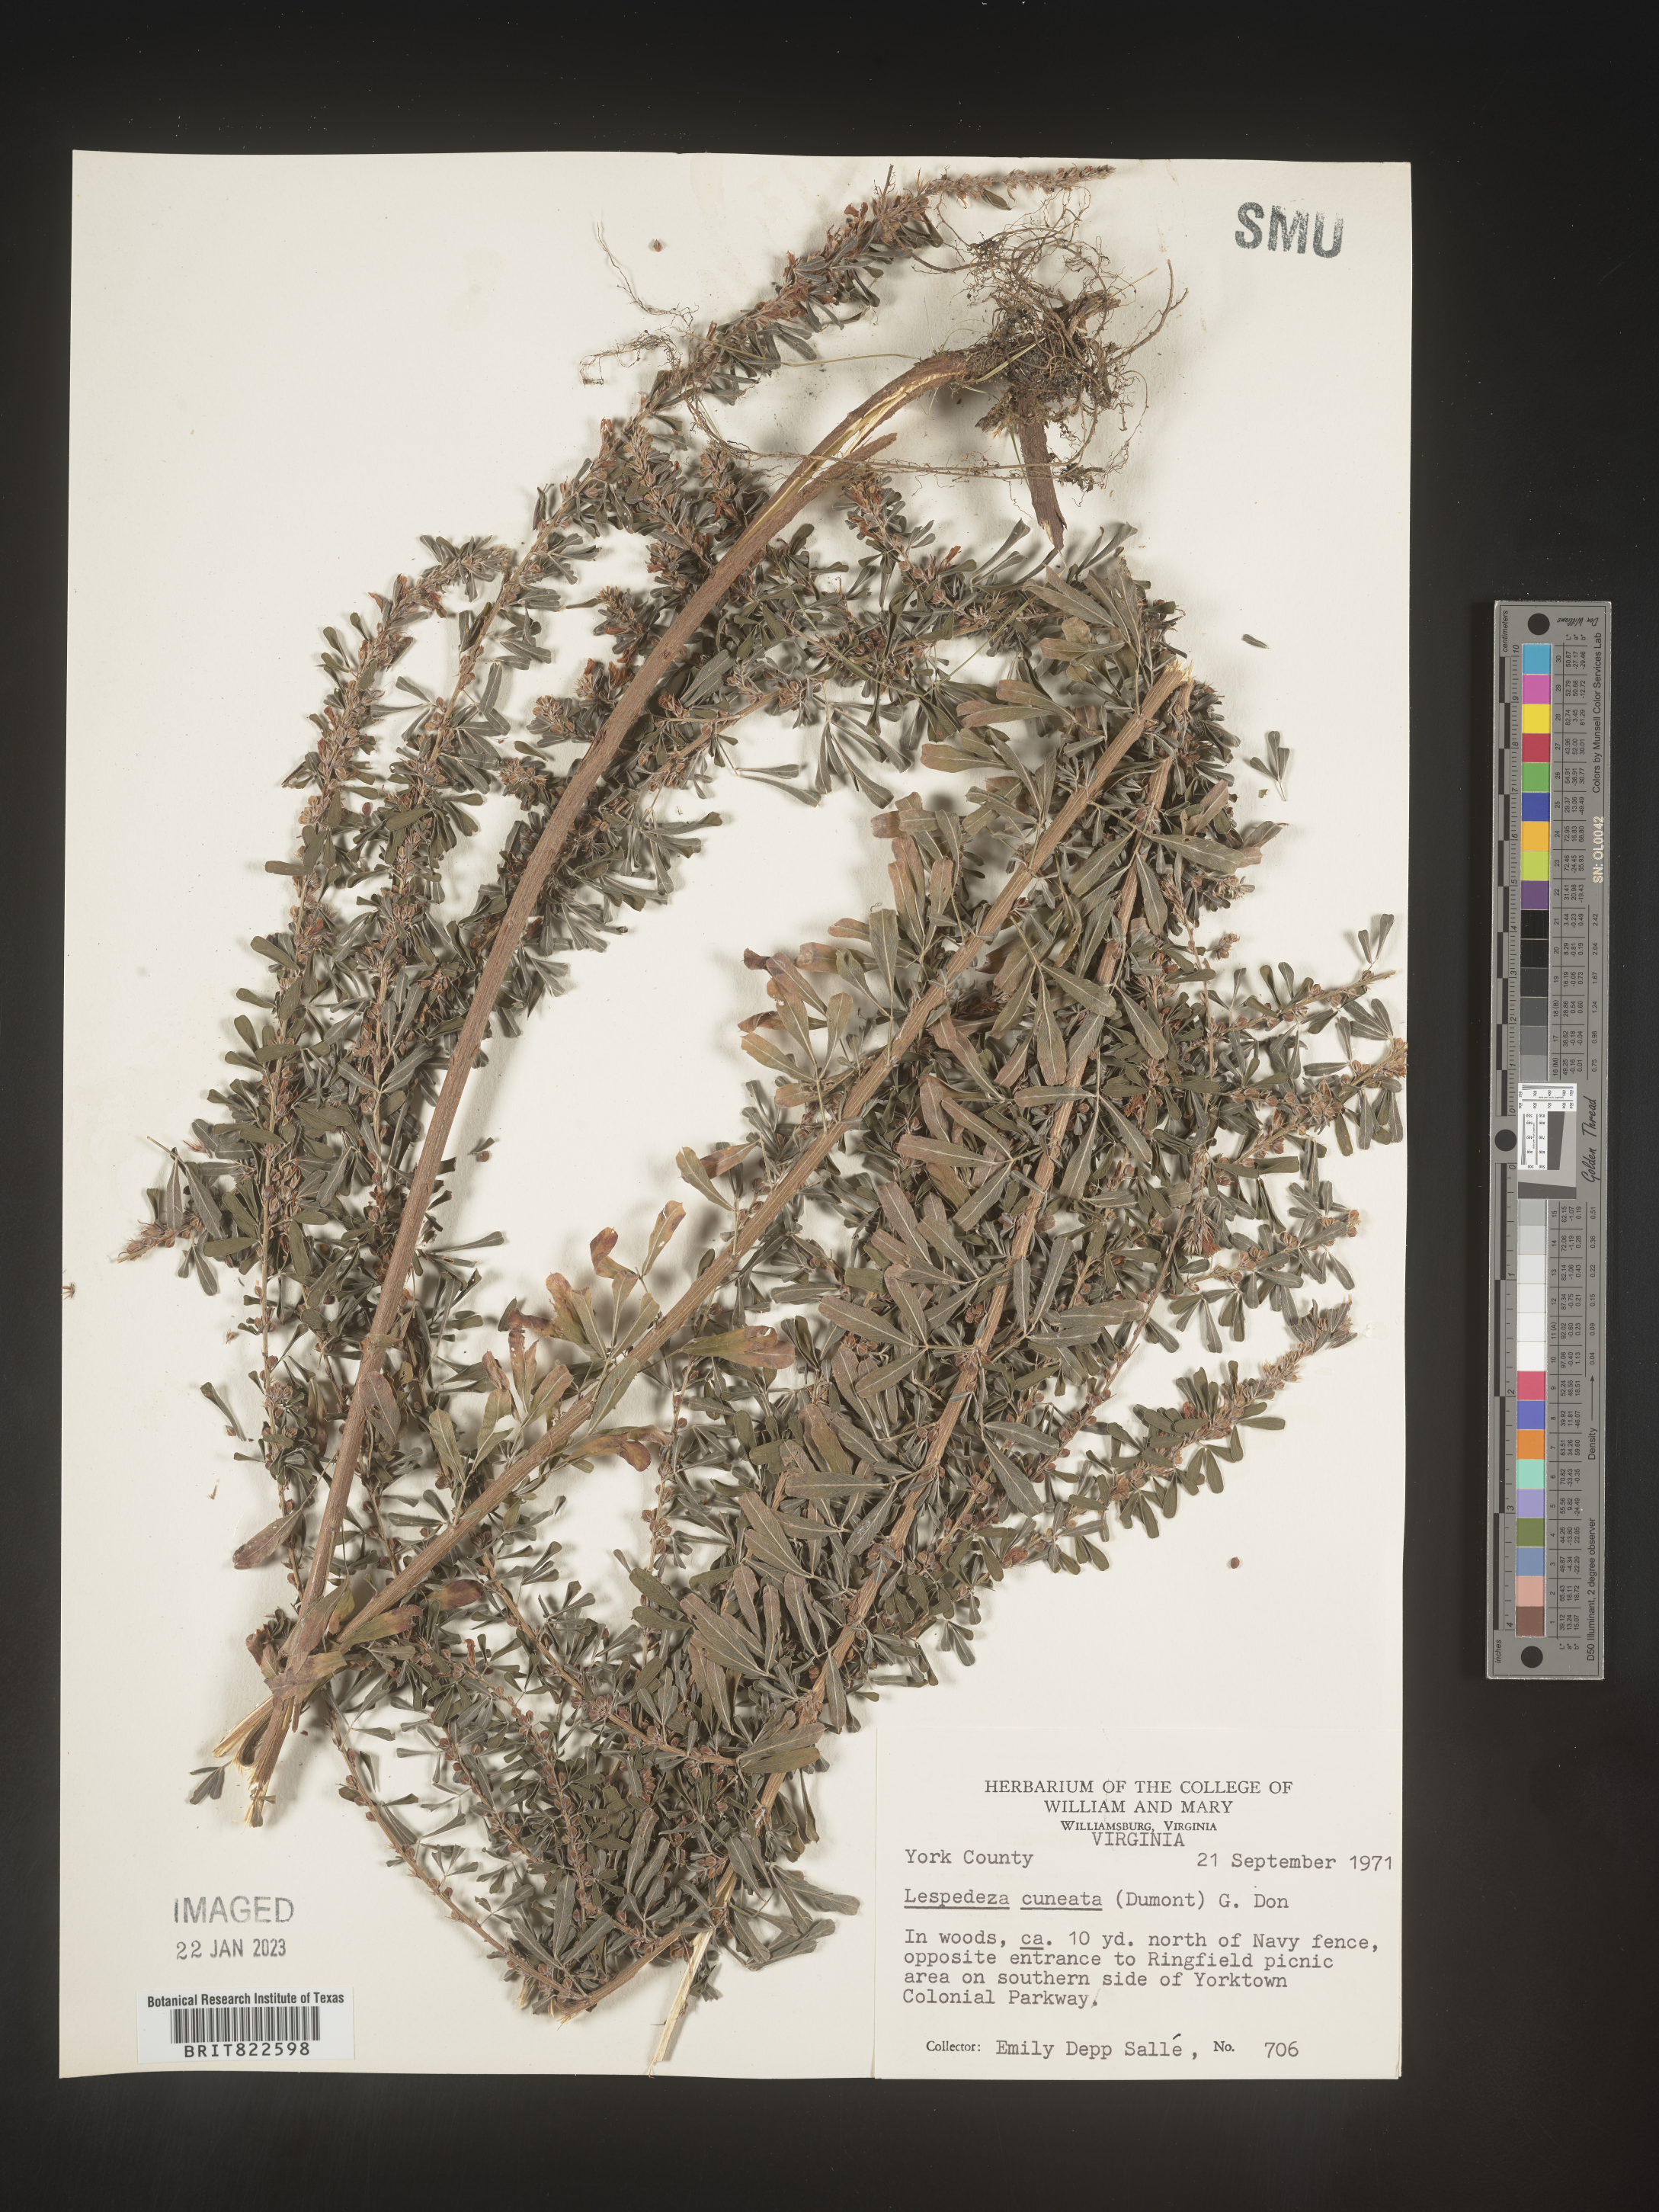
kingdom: Plantae
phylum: Tracheophyta
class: Magnoliopsida
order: Fabales
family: Fabaceae
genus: Lespedeza
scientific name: Lespedeza cuneata
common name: Chinese bush-clover
